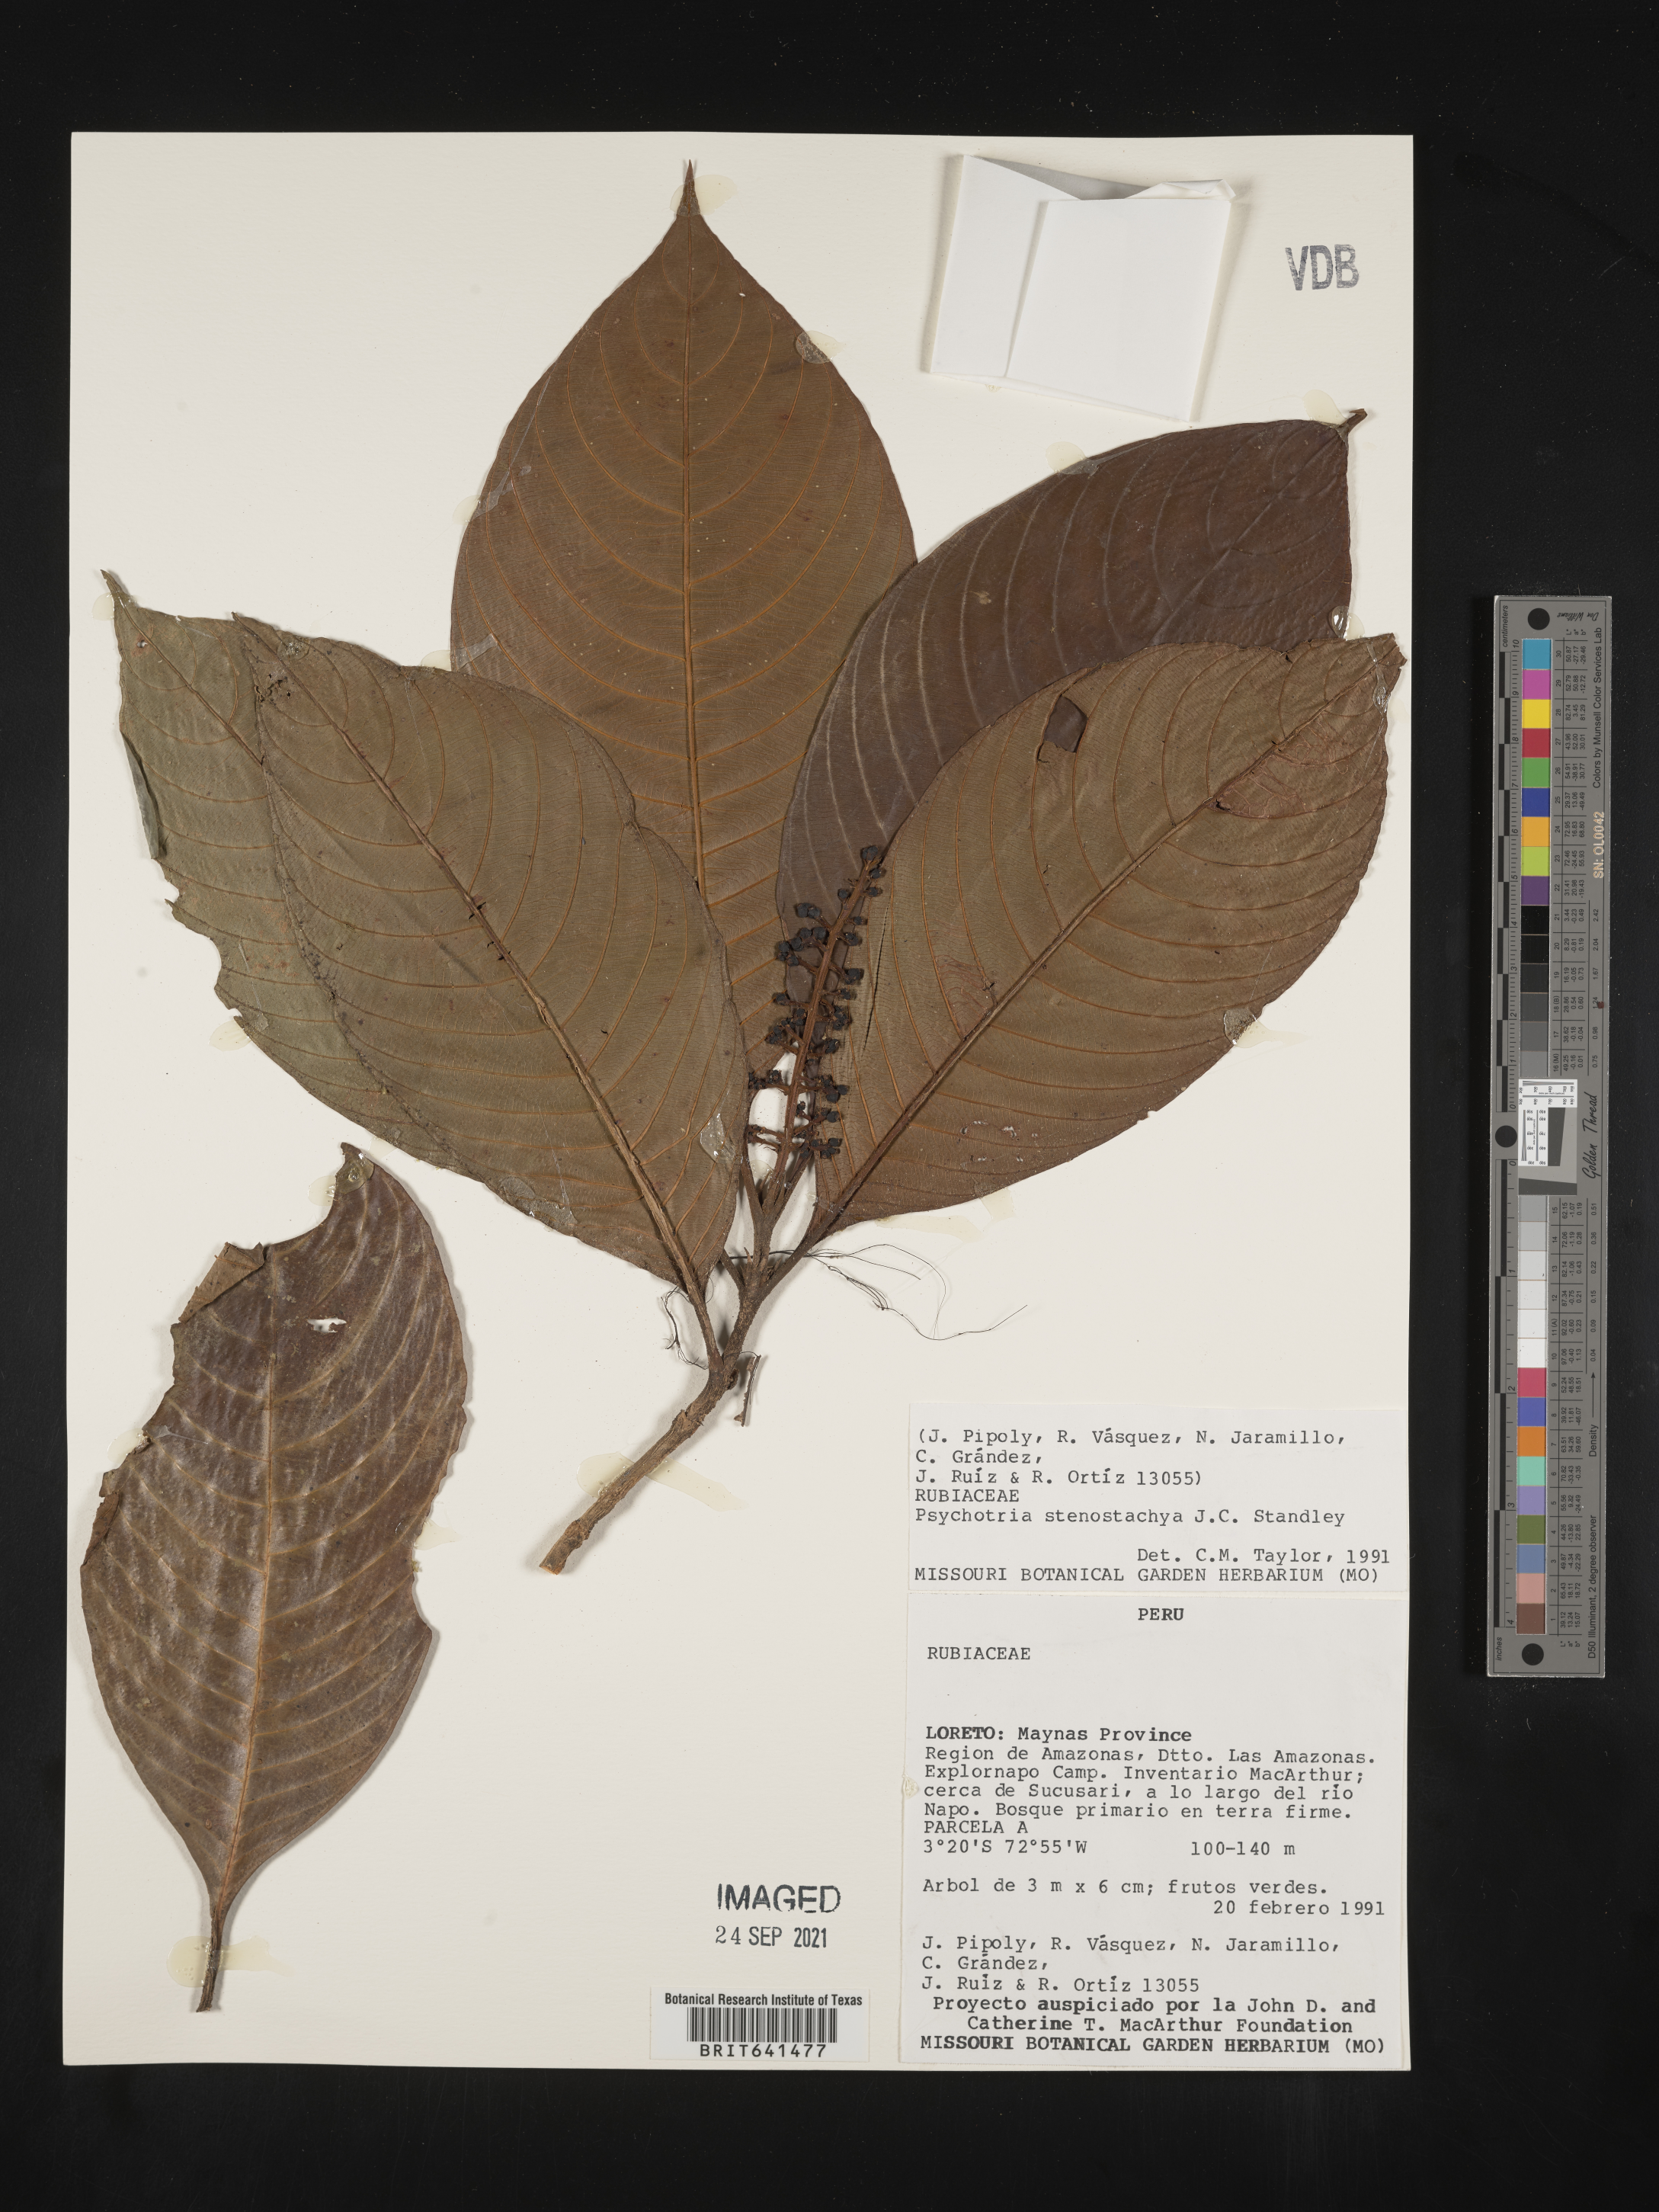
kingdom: Plantae
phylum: Tracheophyta
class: Magnoliopsida
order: Gentianales
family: Rubiaceae
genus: Psychotria
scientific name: Psychotria
